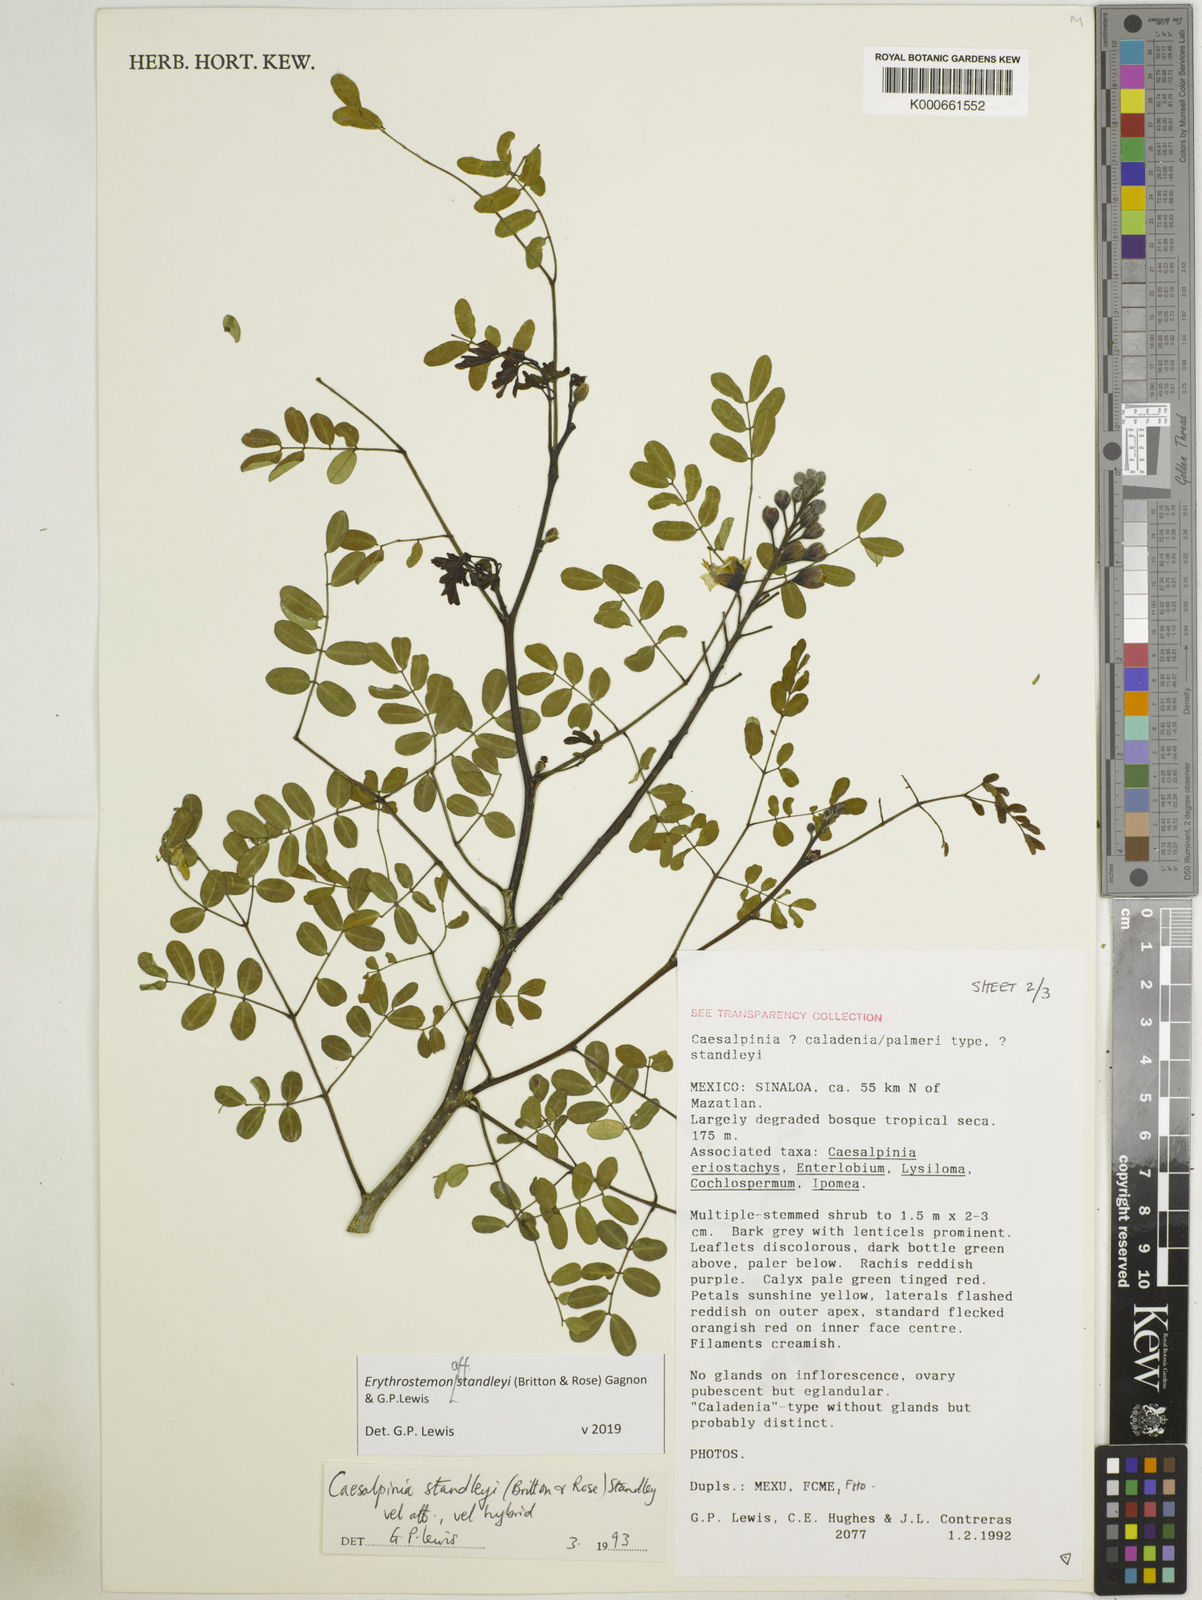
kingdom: Plantae
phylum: Tracheophyta
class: Magnoliopsida
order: Fabales
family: Fabaceae
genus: Erythrostemon
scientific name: Erythrostemon standleyi
